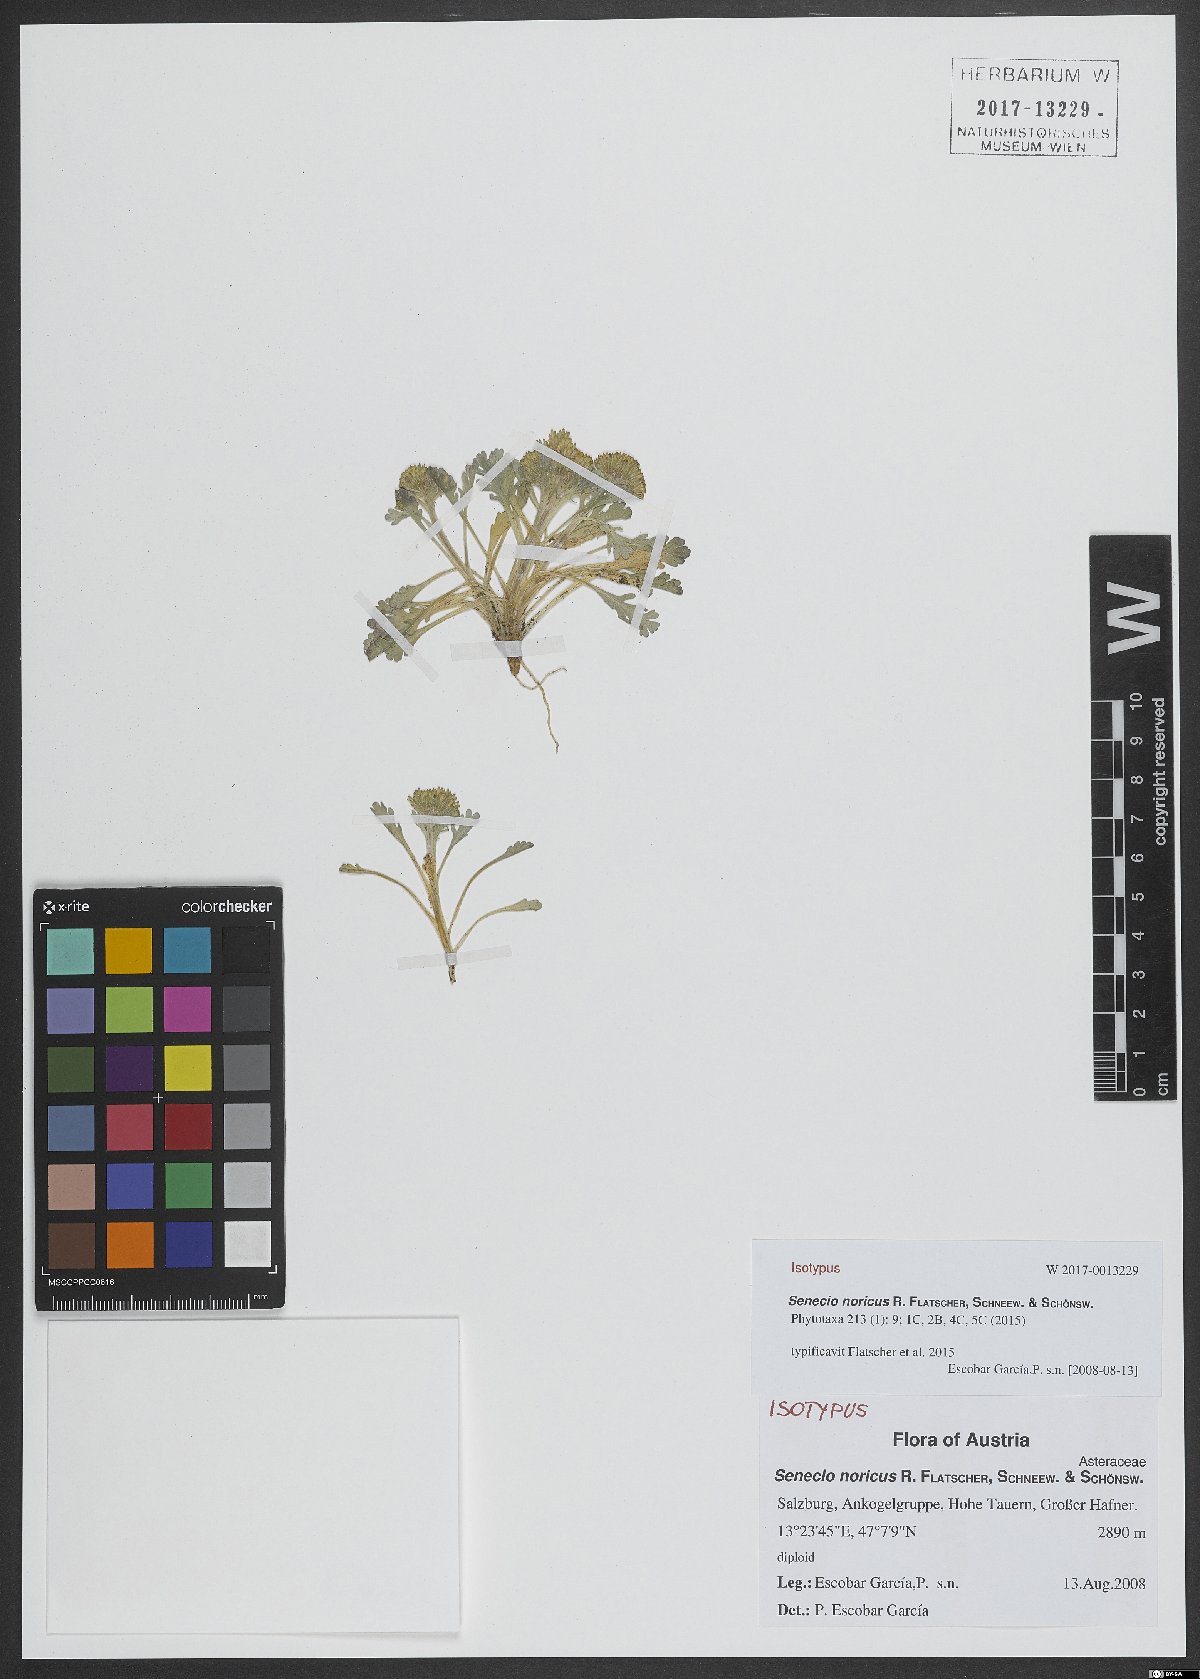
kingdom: Plantae
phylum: Tracheophyta
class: Magnoliopsida
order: Asterales
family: Asteraceae
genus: Jacobaea
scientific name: Jacobaea norica
